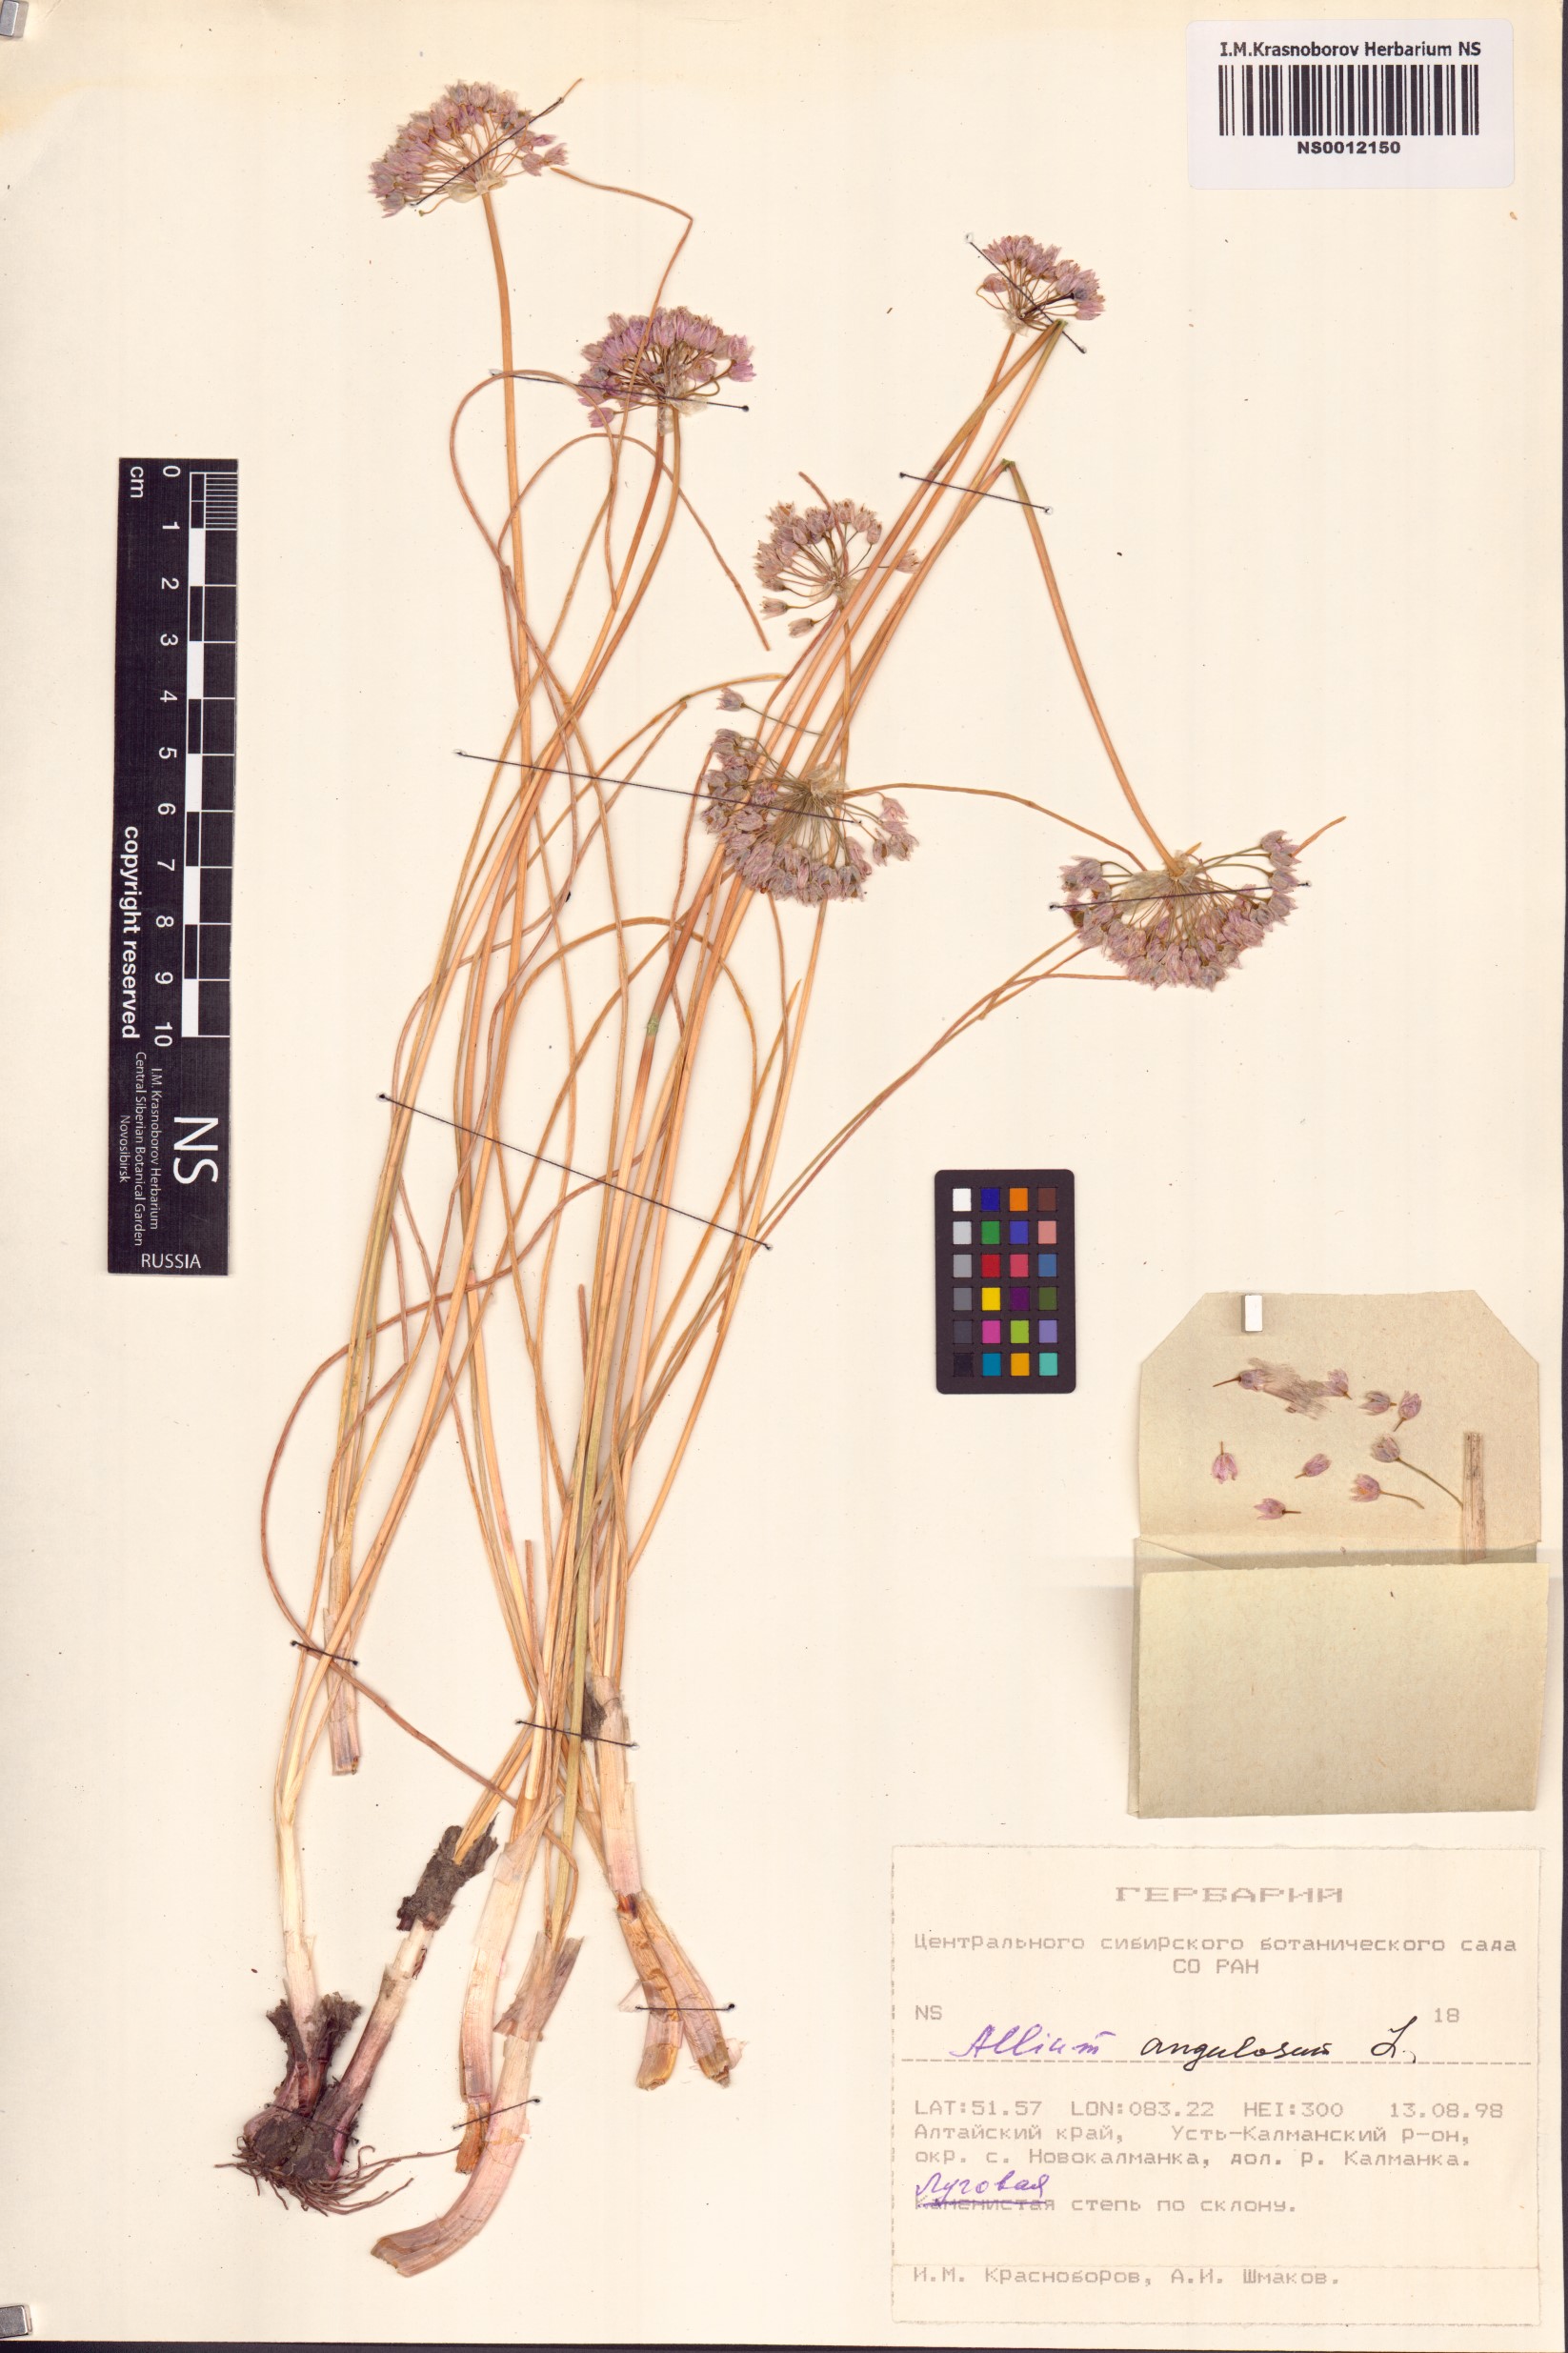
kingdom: Plantae
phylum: Tracheophyta
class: Liliopsida
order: Asparagales
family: Amaryllidaceae
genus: Allium
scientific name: Allium angulosum
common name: Mouse garlic
